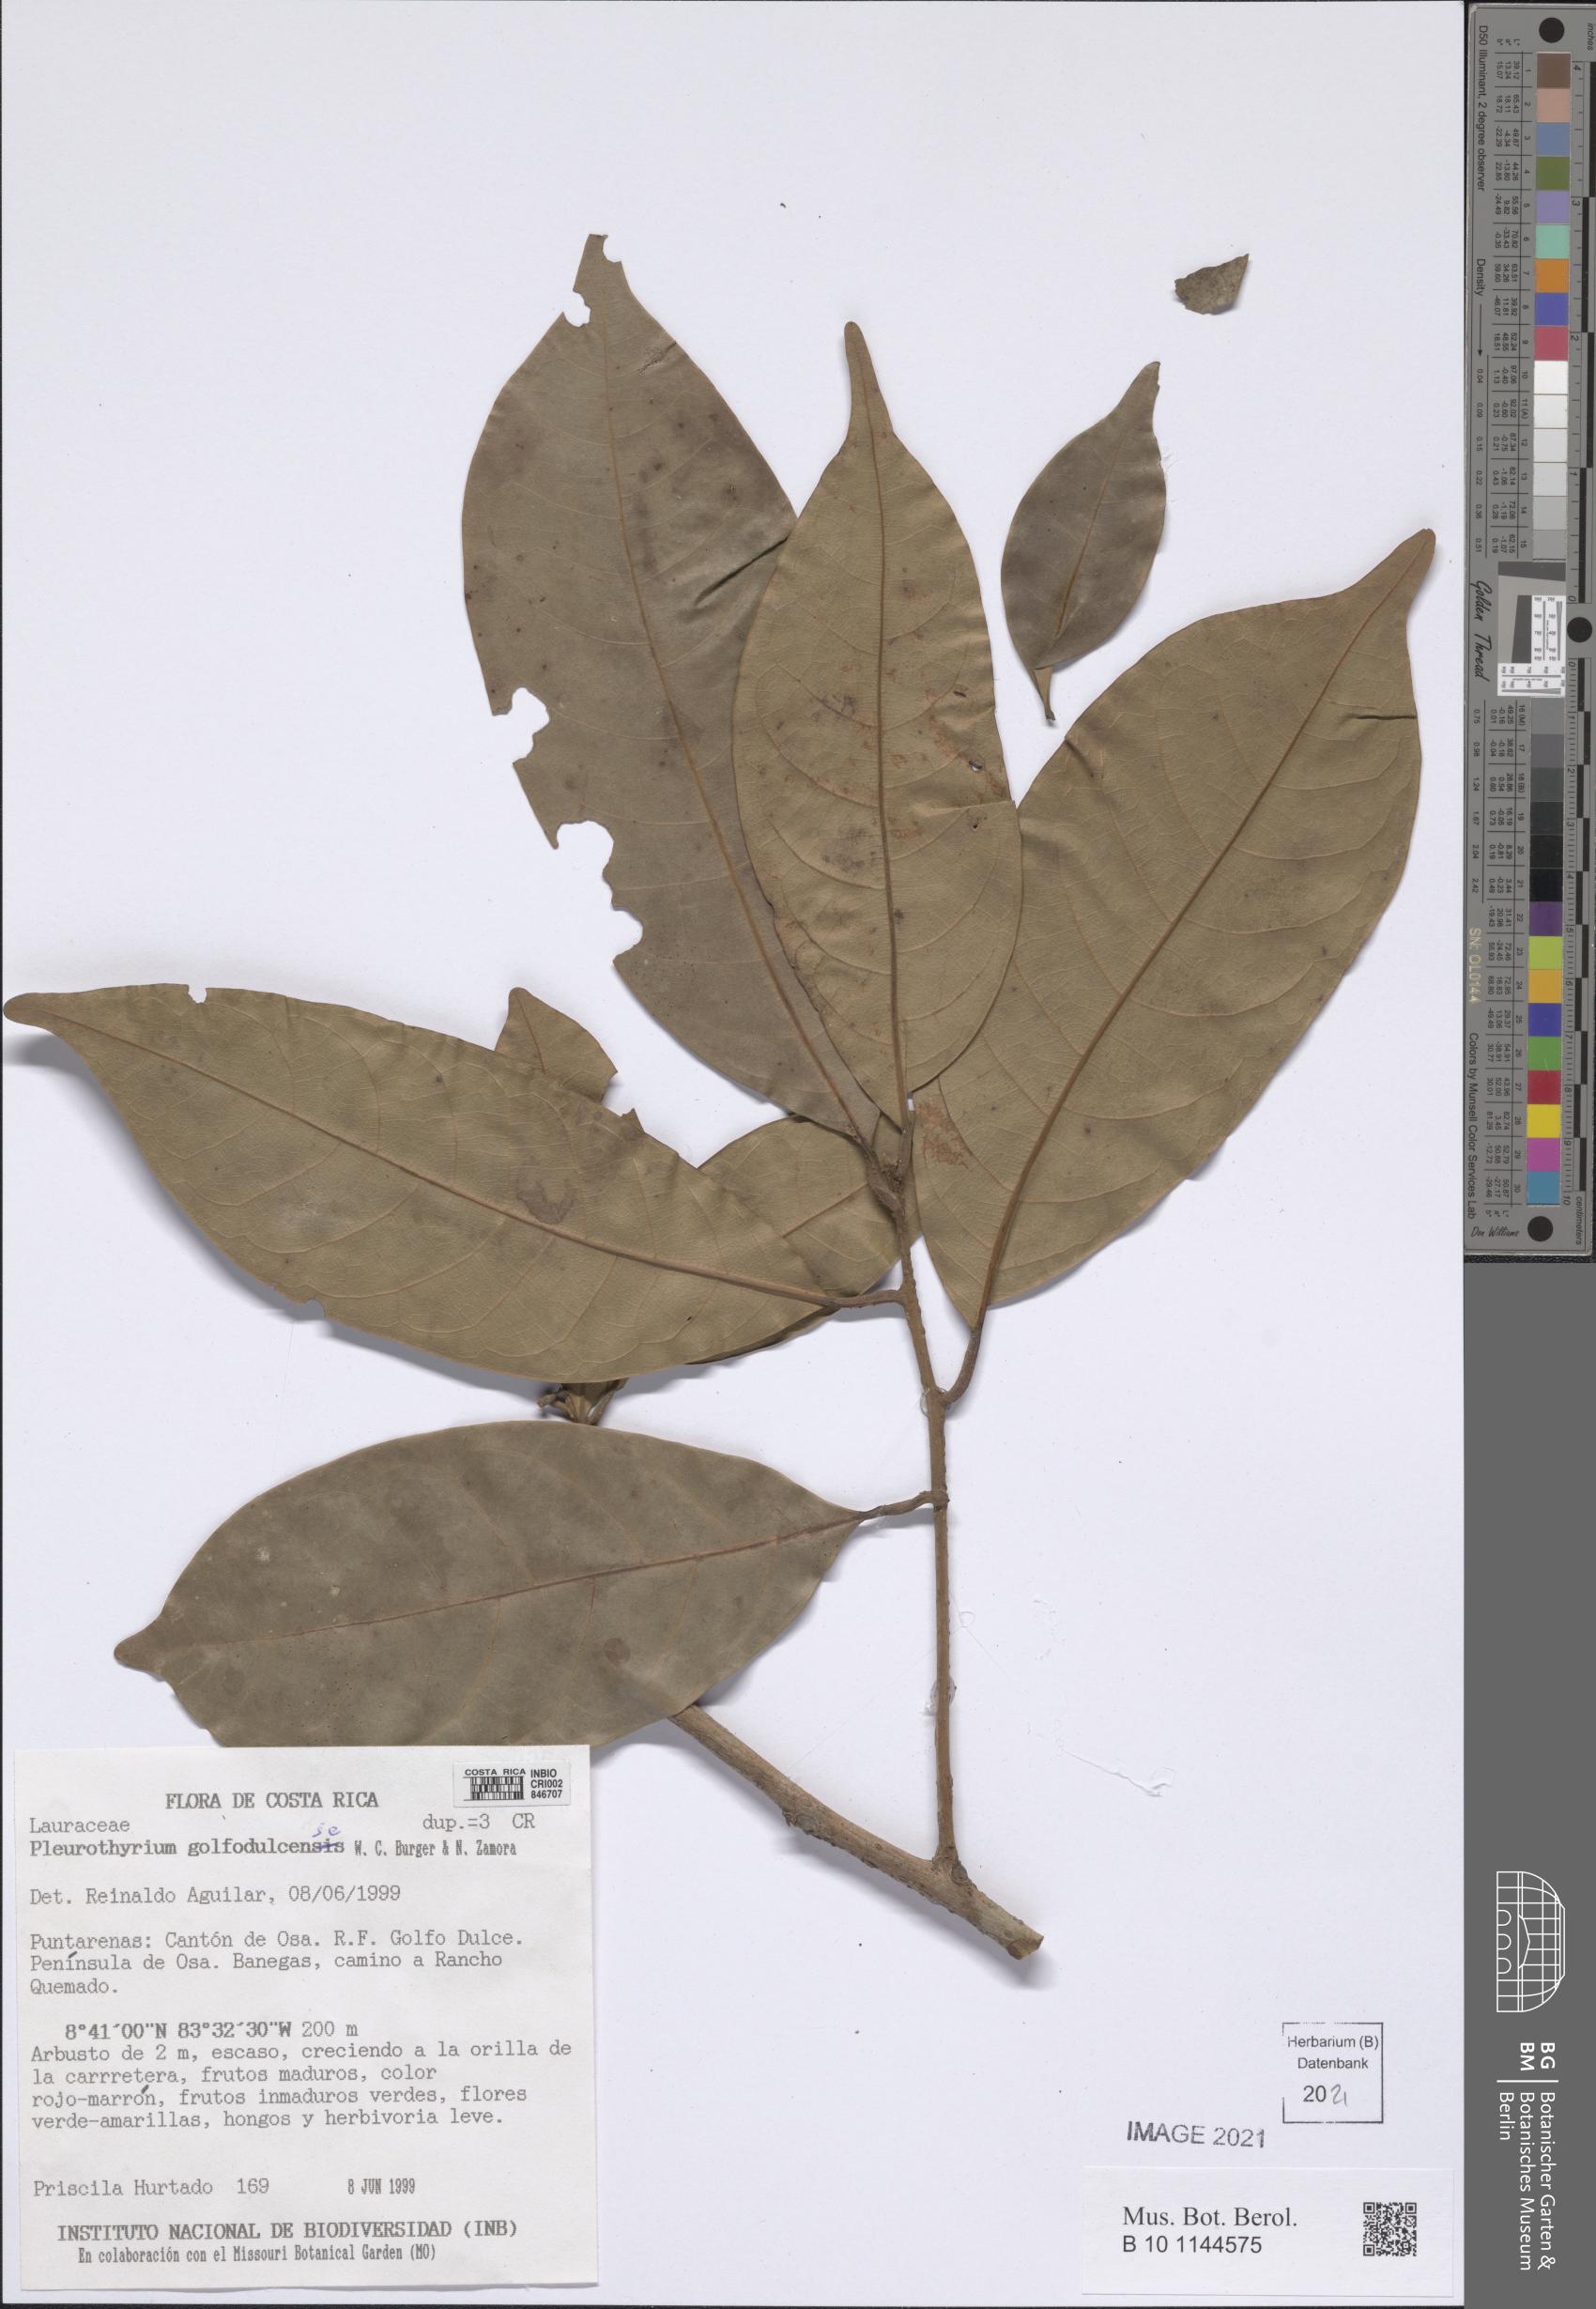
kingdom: Plantae
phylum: Tracheophyta
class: Magnoliopsida
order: Laurales
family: Lauraceae
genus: Pleurothyrium
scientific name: Pleurothyrium golfodulcense
